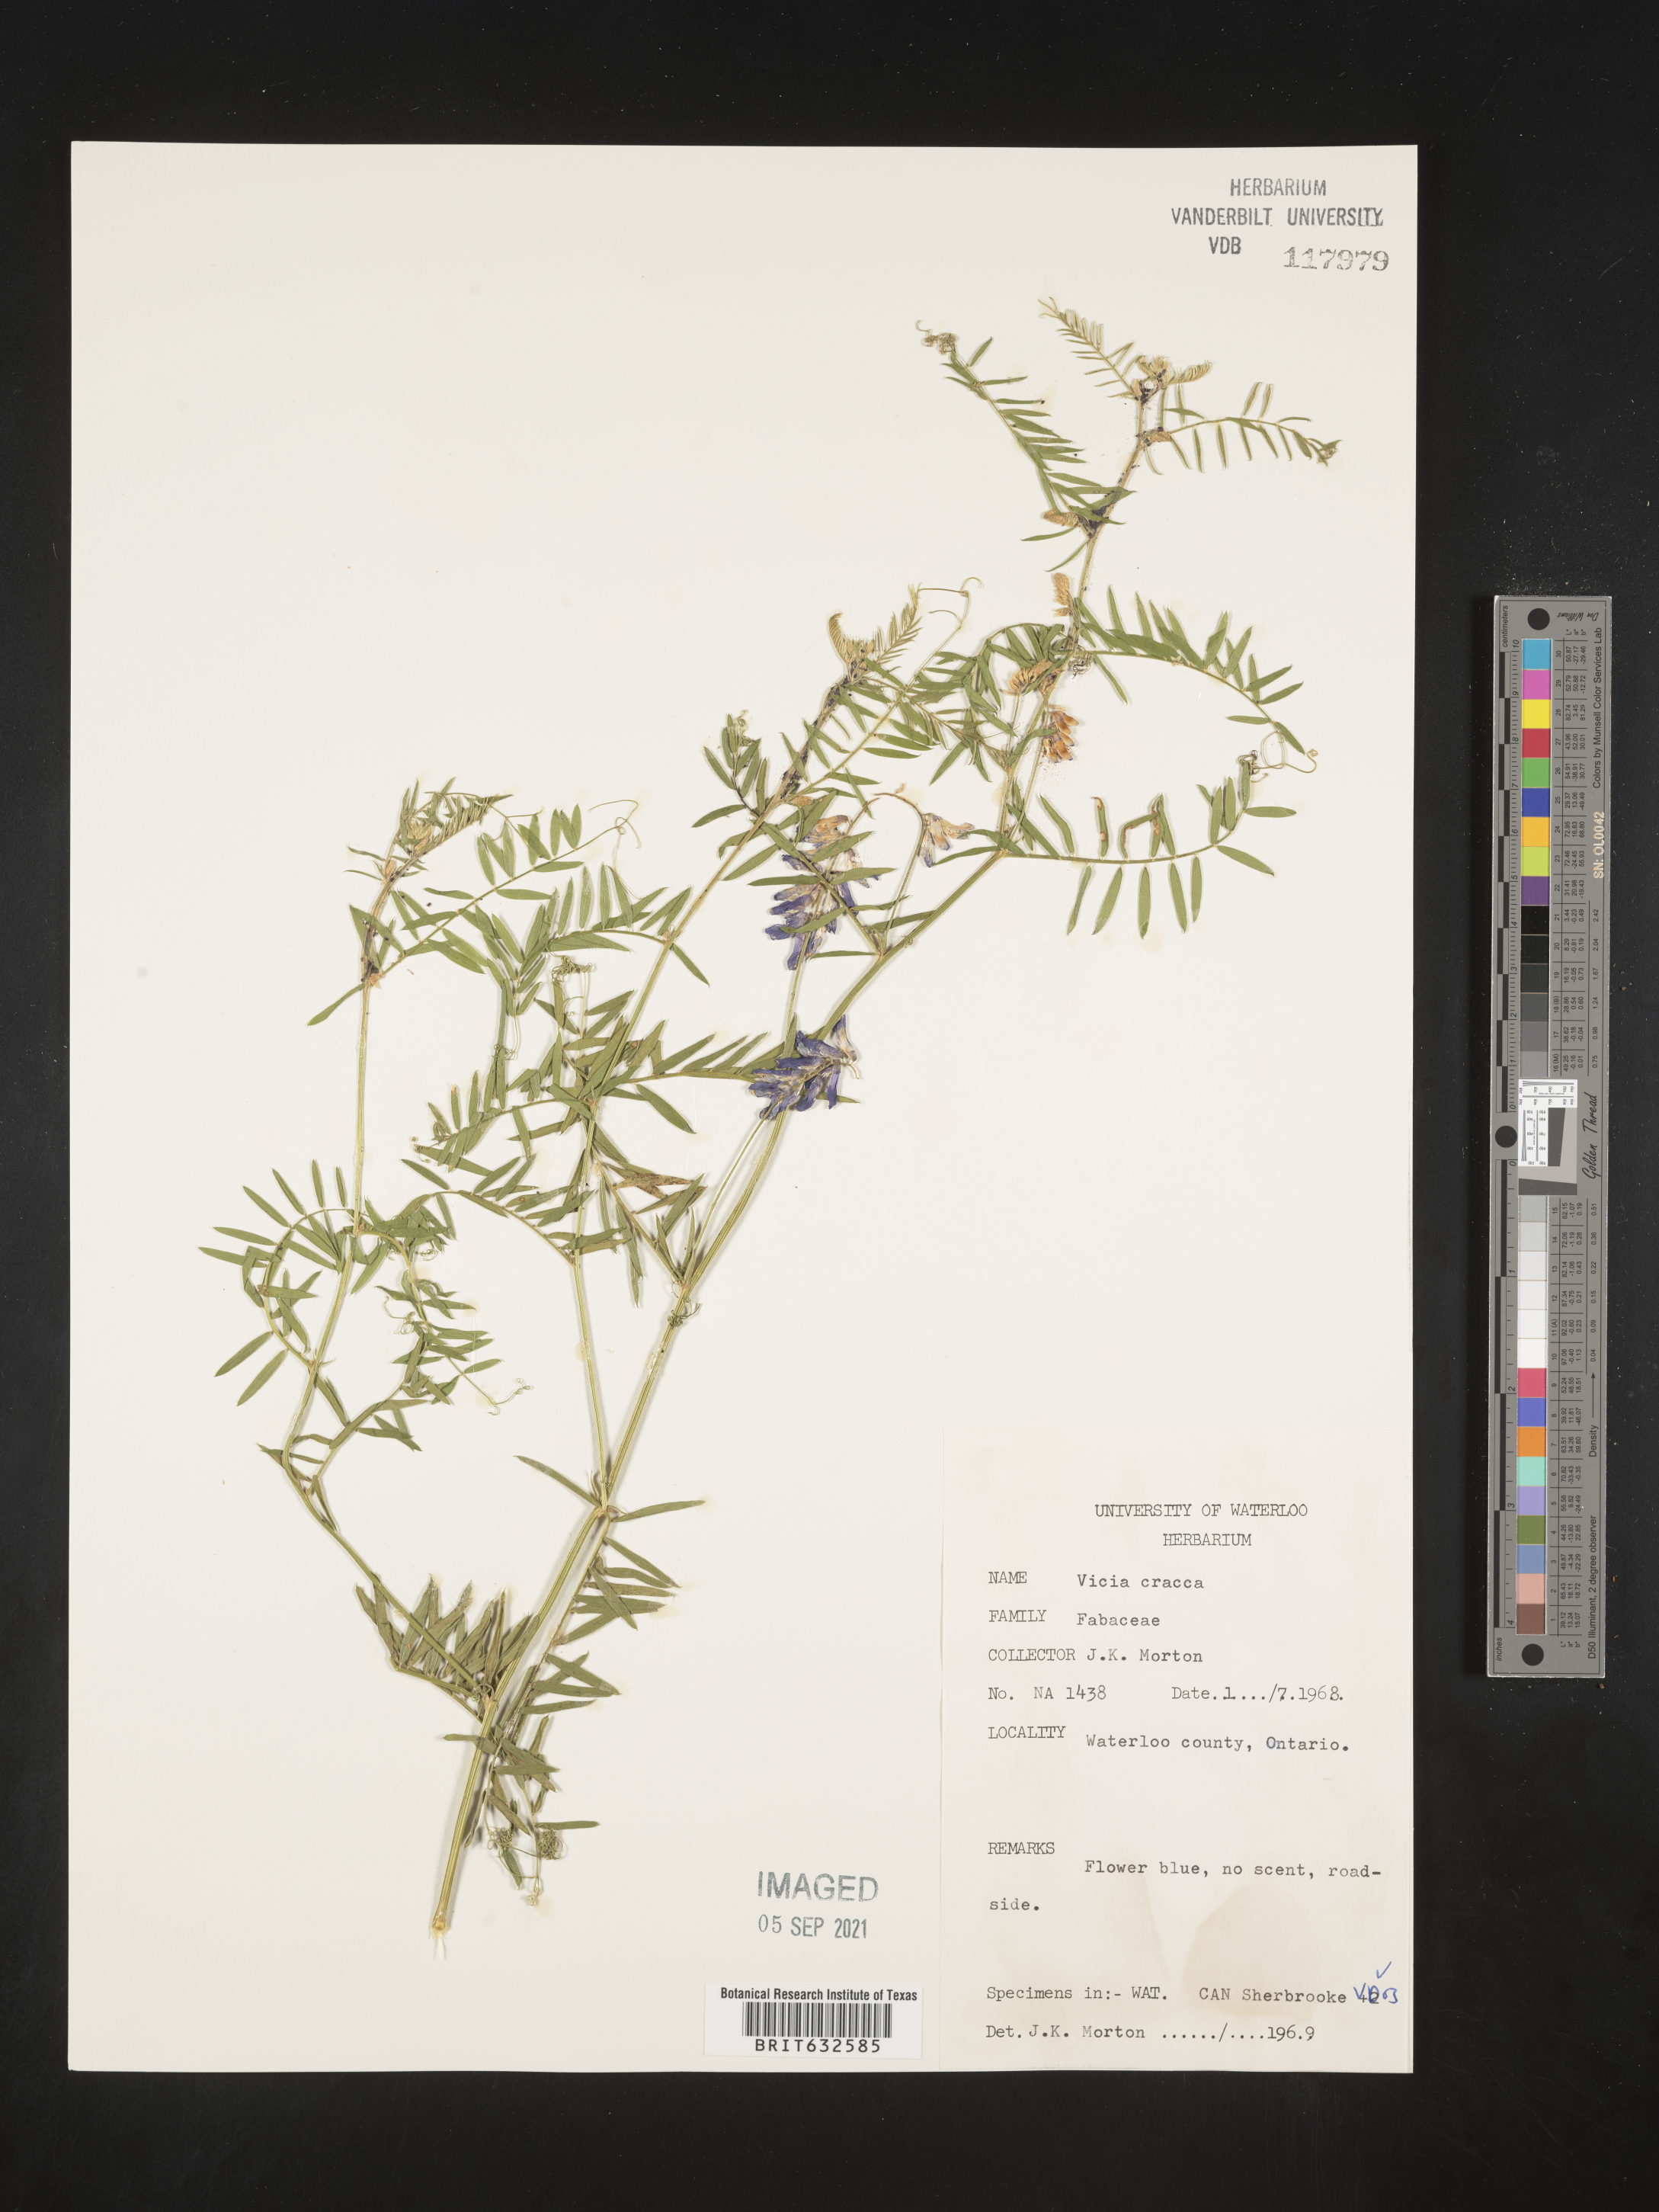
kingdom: Plantae
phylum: Tracheophyta
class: Magnoliopsida
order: Fabales
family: Fabaceae
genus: Vicia
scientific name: Vicia
